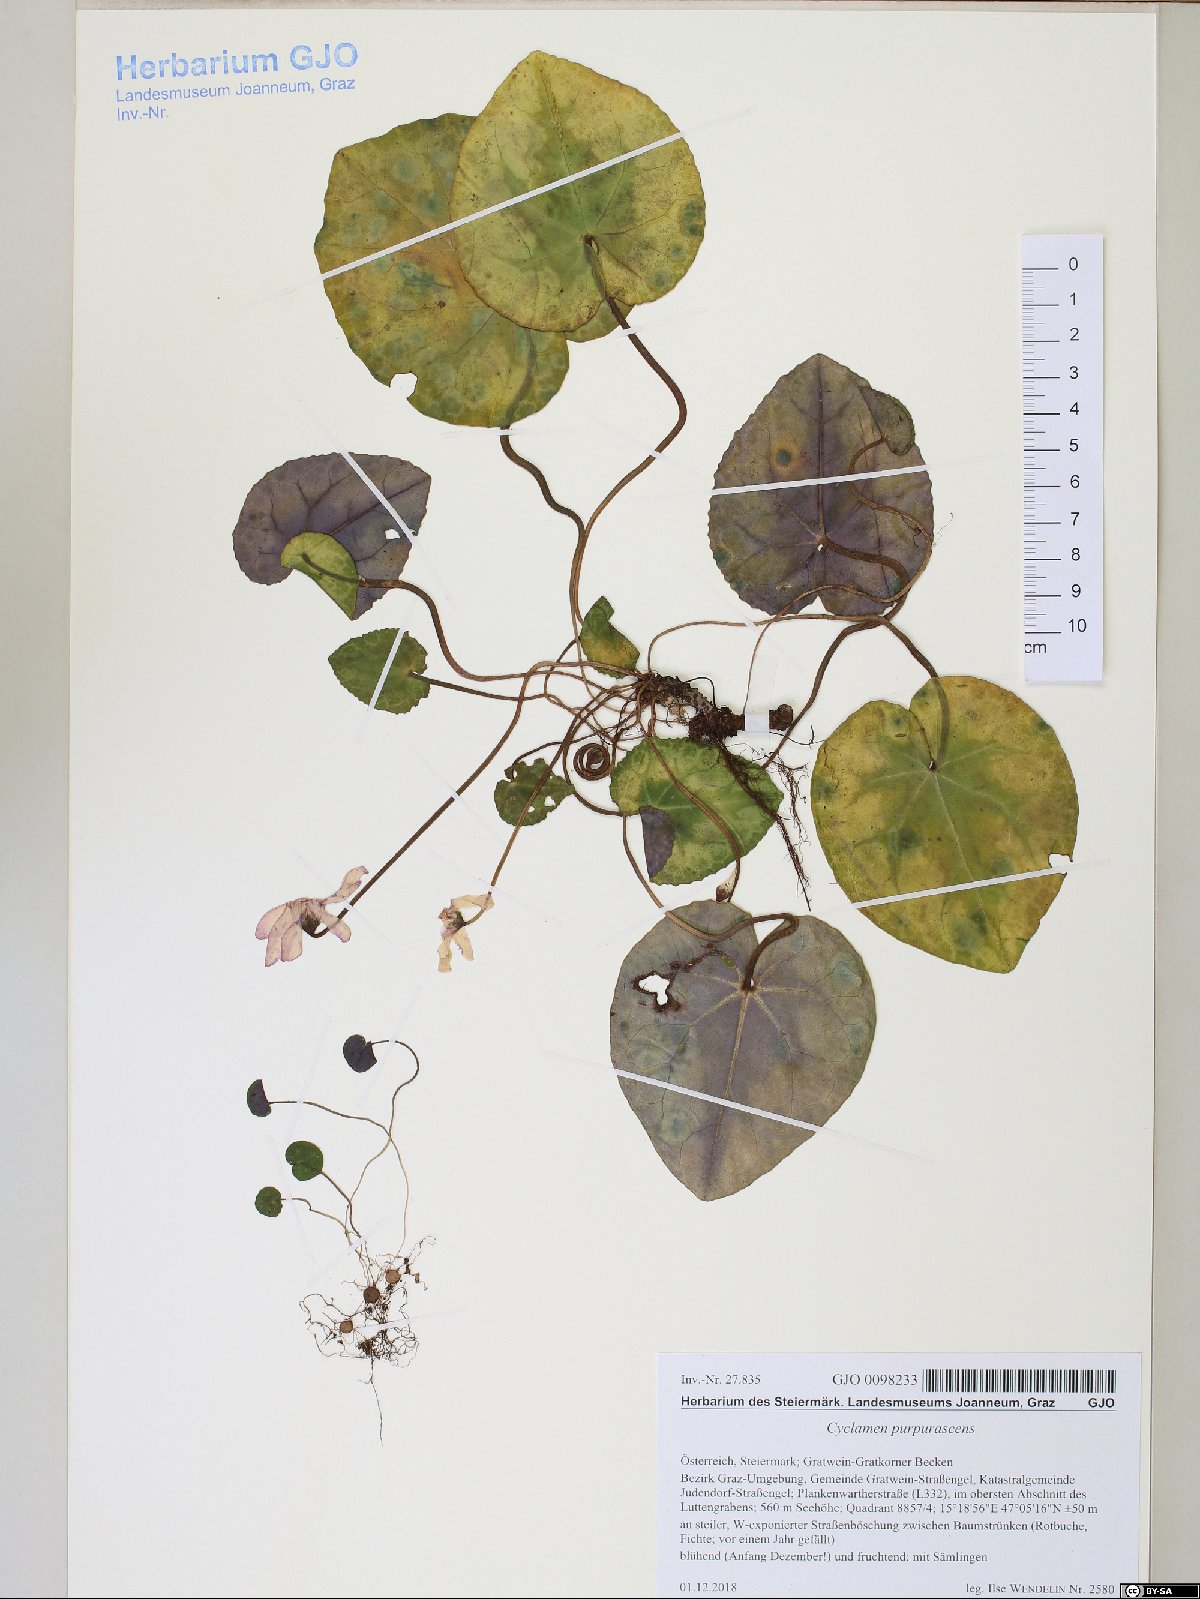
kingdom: Plantae
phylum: Tracheophyta
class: Magnoliopsida
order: Ericales
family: Primulaceae
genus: Cyclamen
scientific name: Cyclamen purpurascens
